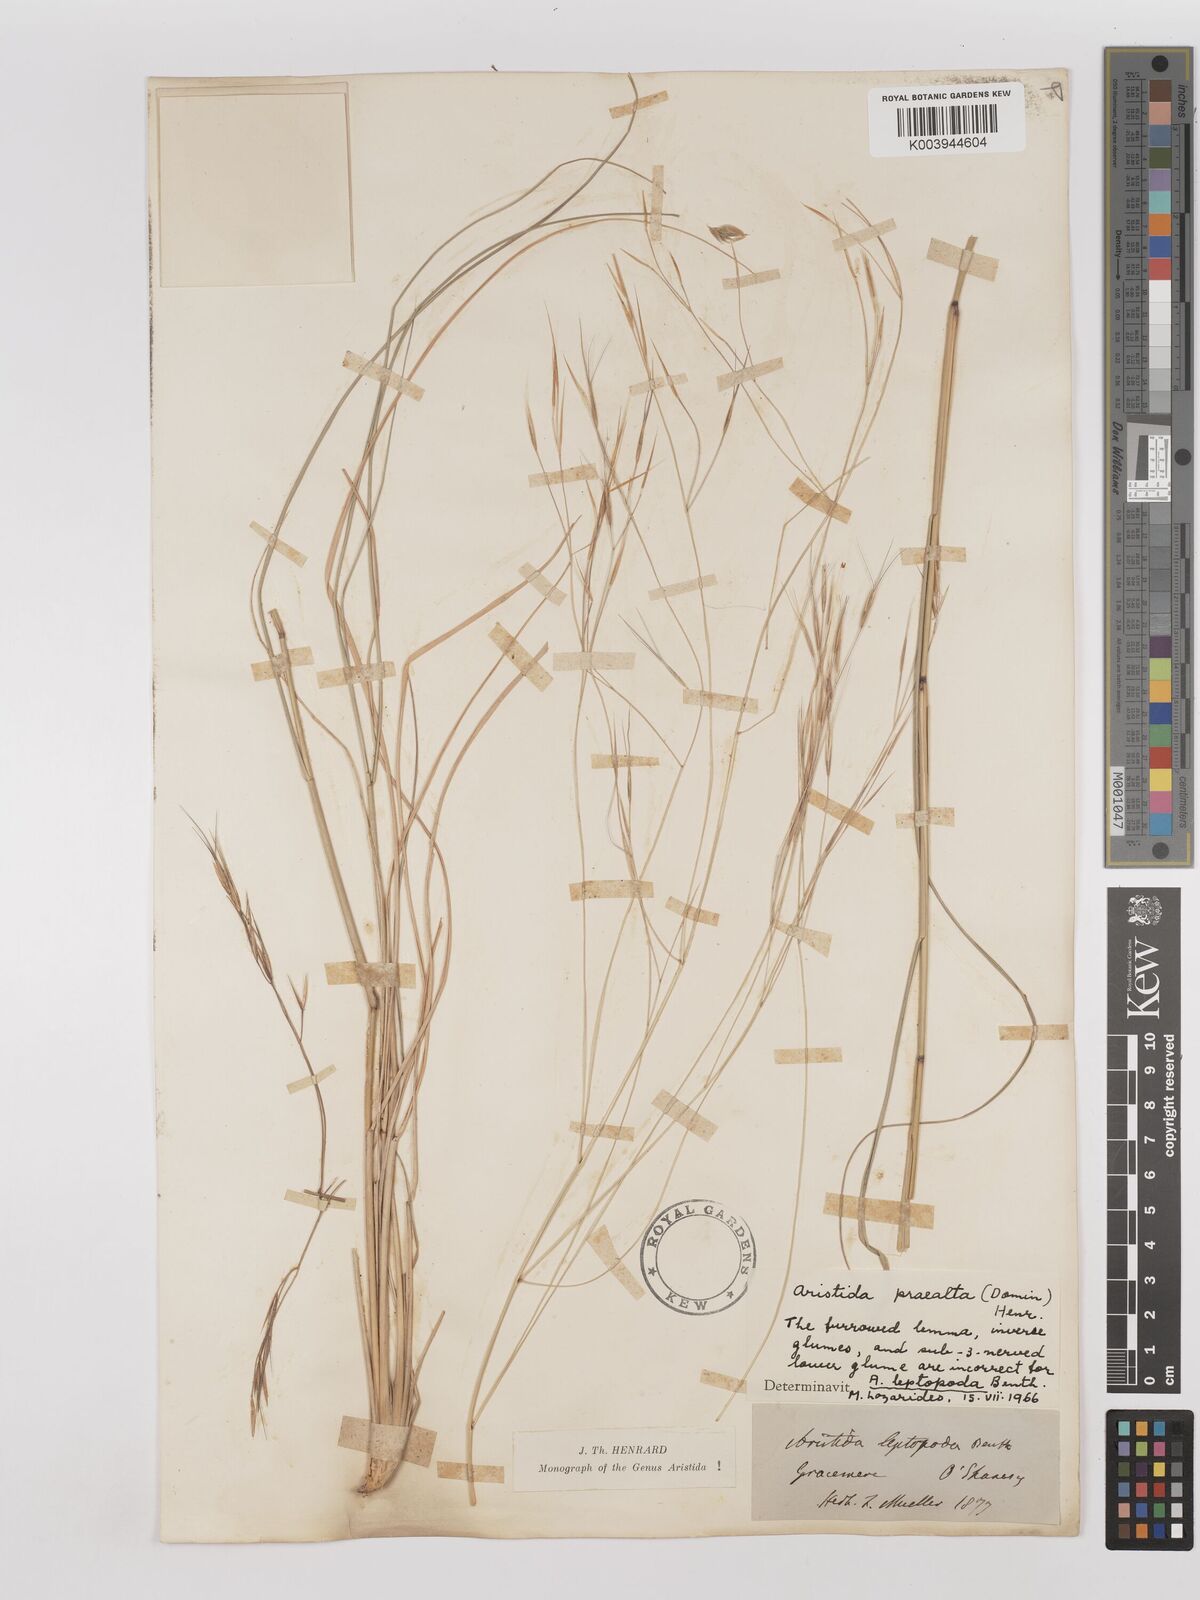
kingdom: Plantae
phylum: Tracheophyta
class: Liliopsida
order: Poales
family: Poaceae
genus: Aristida
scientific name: Aristida calycina
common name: Dark wire grass
